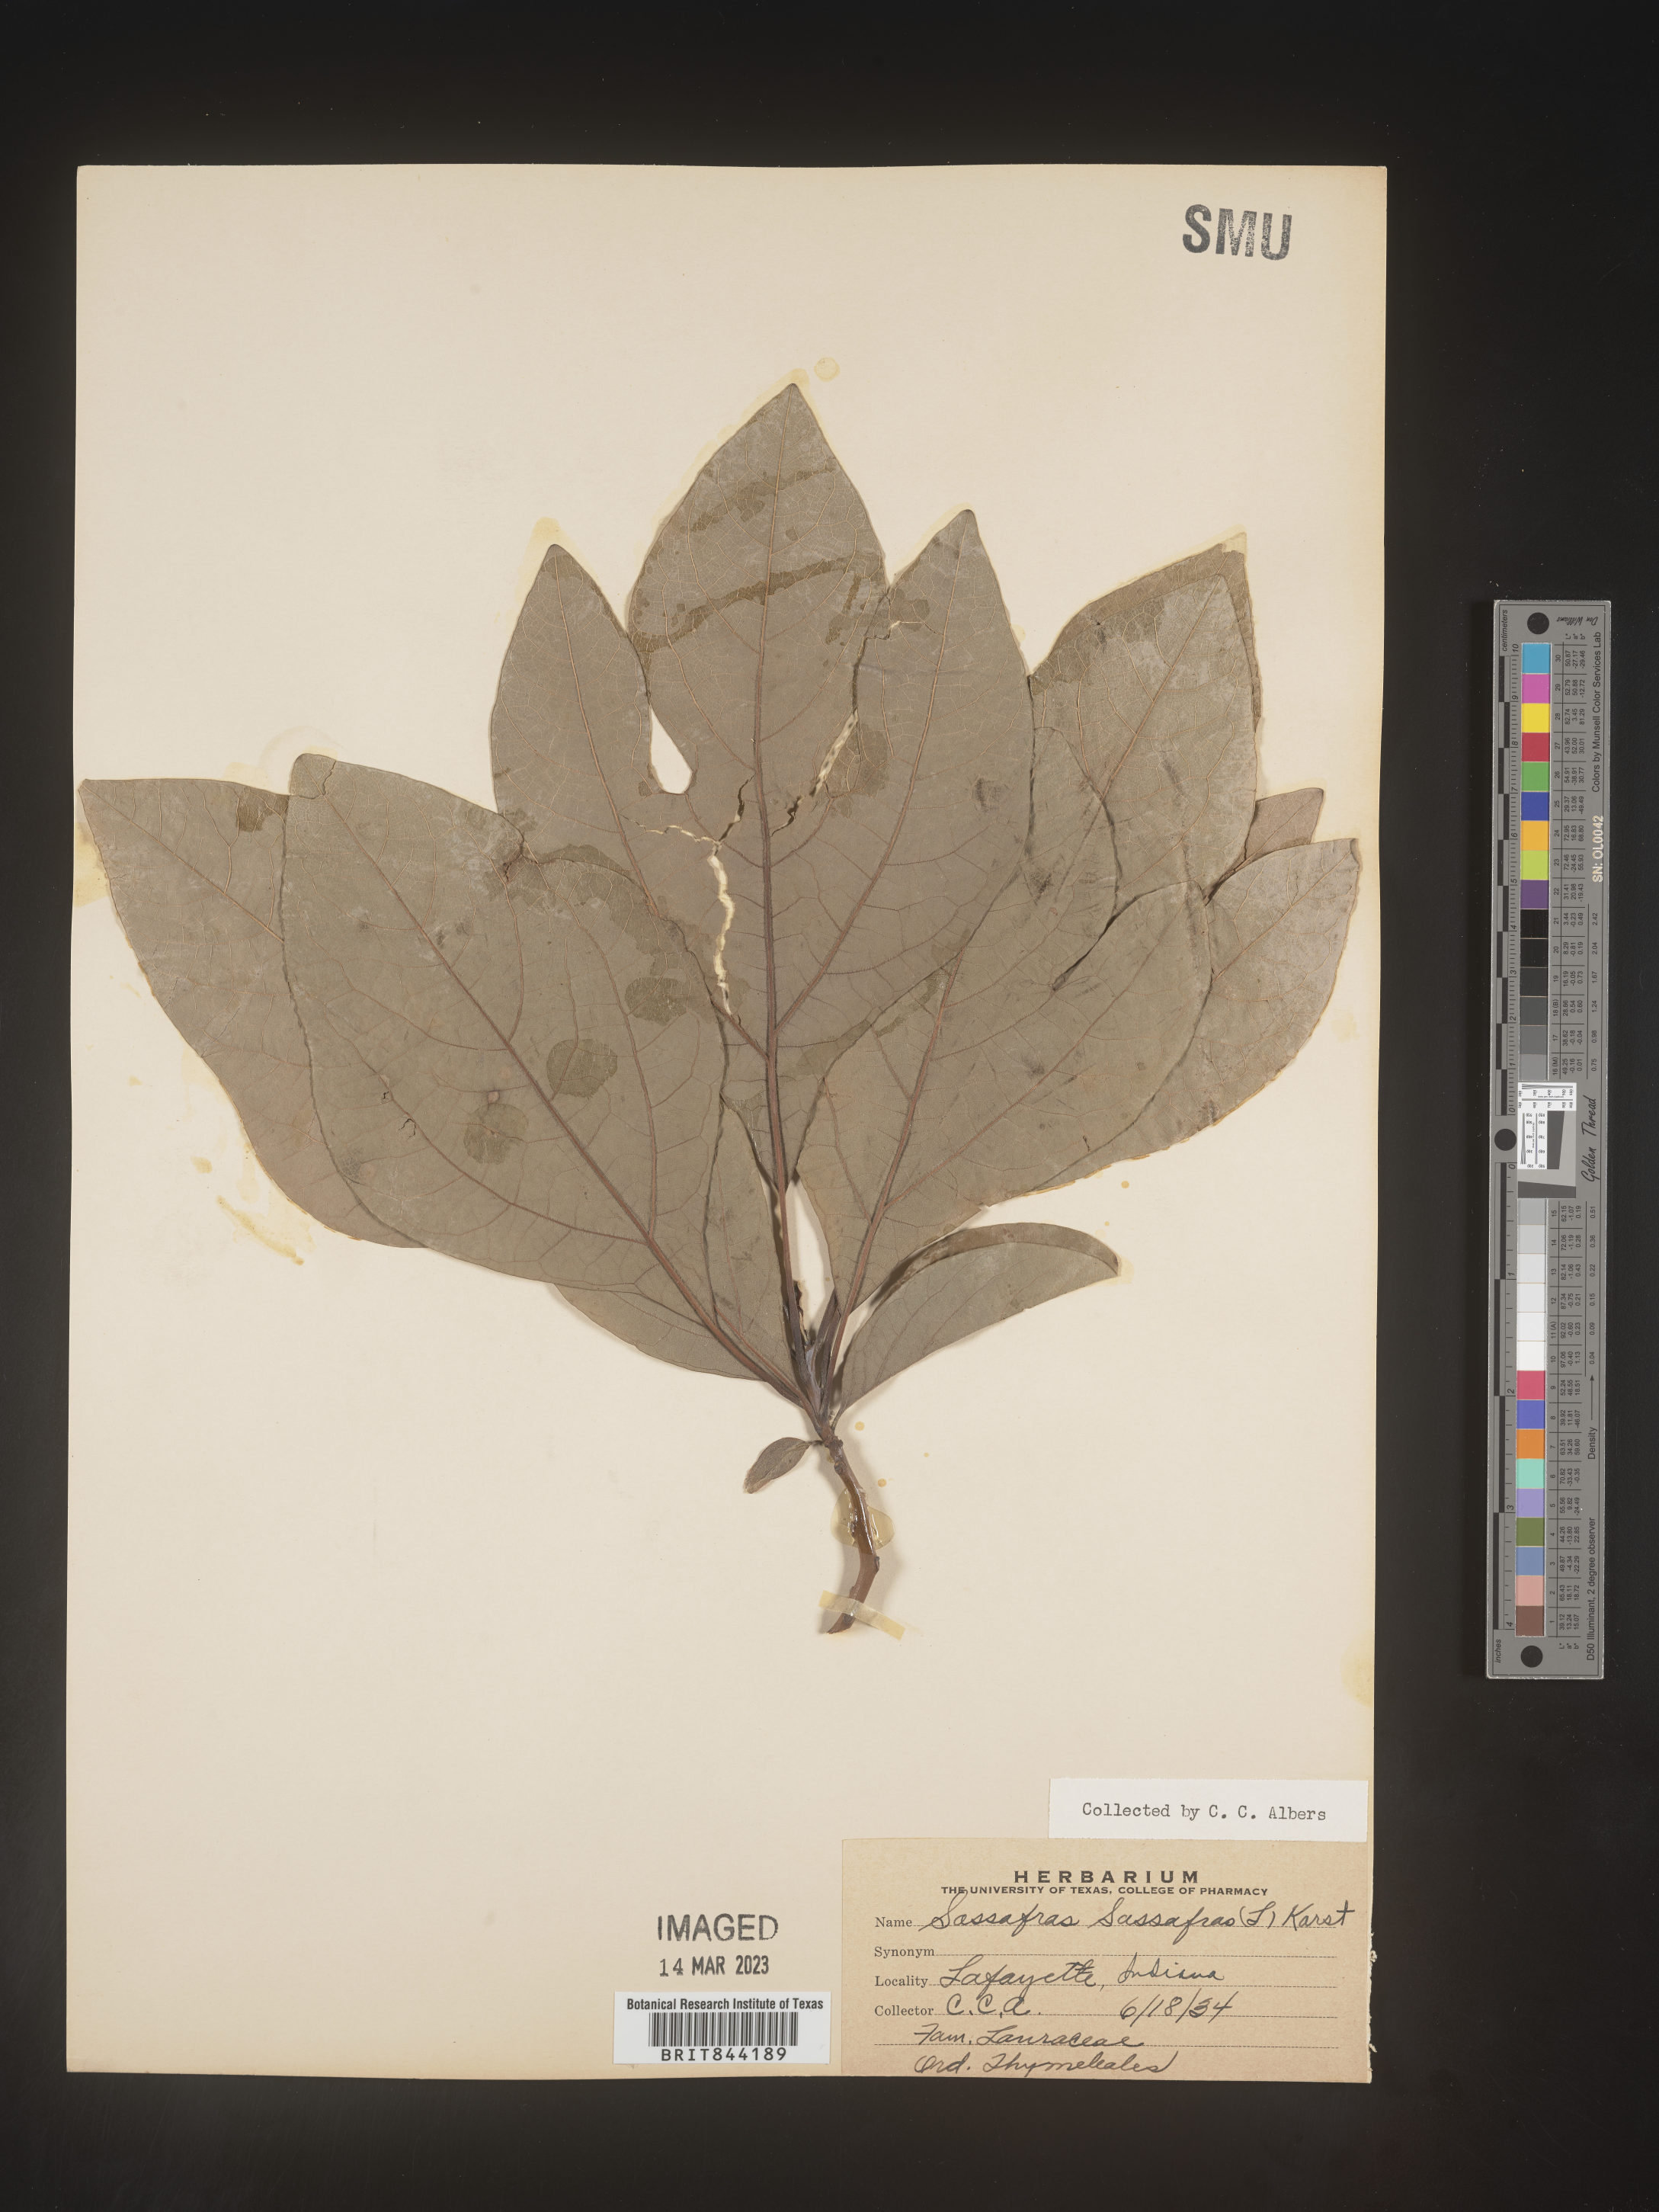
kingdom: Plantae
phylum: Tracheophyta
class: Magnoliopsida
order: Laurales
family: Lauraceae
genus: Sassafras
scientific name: Sassafras albidum
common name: Sassafras
